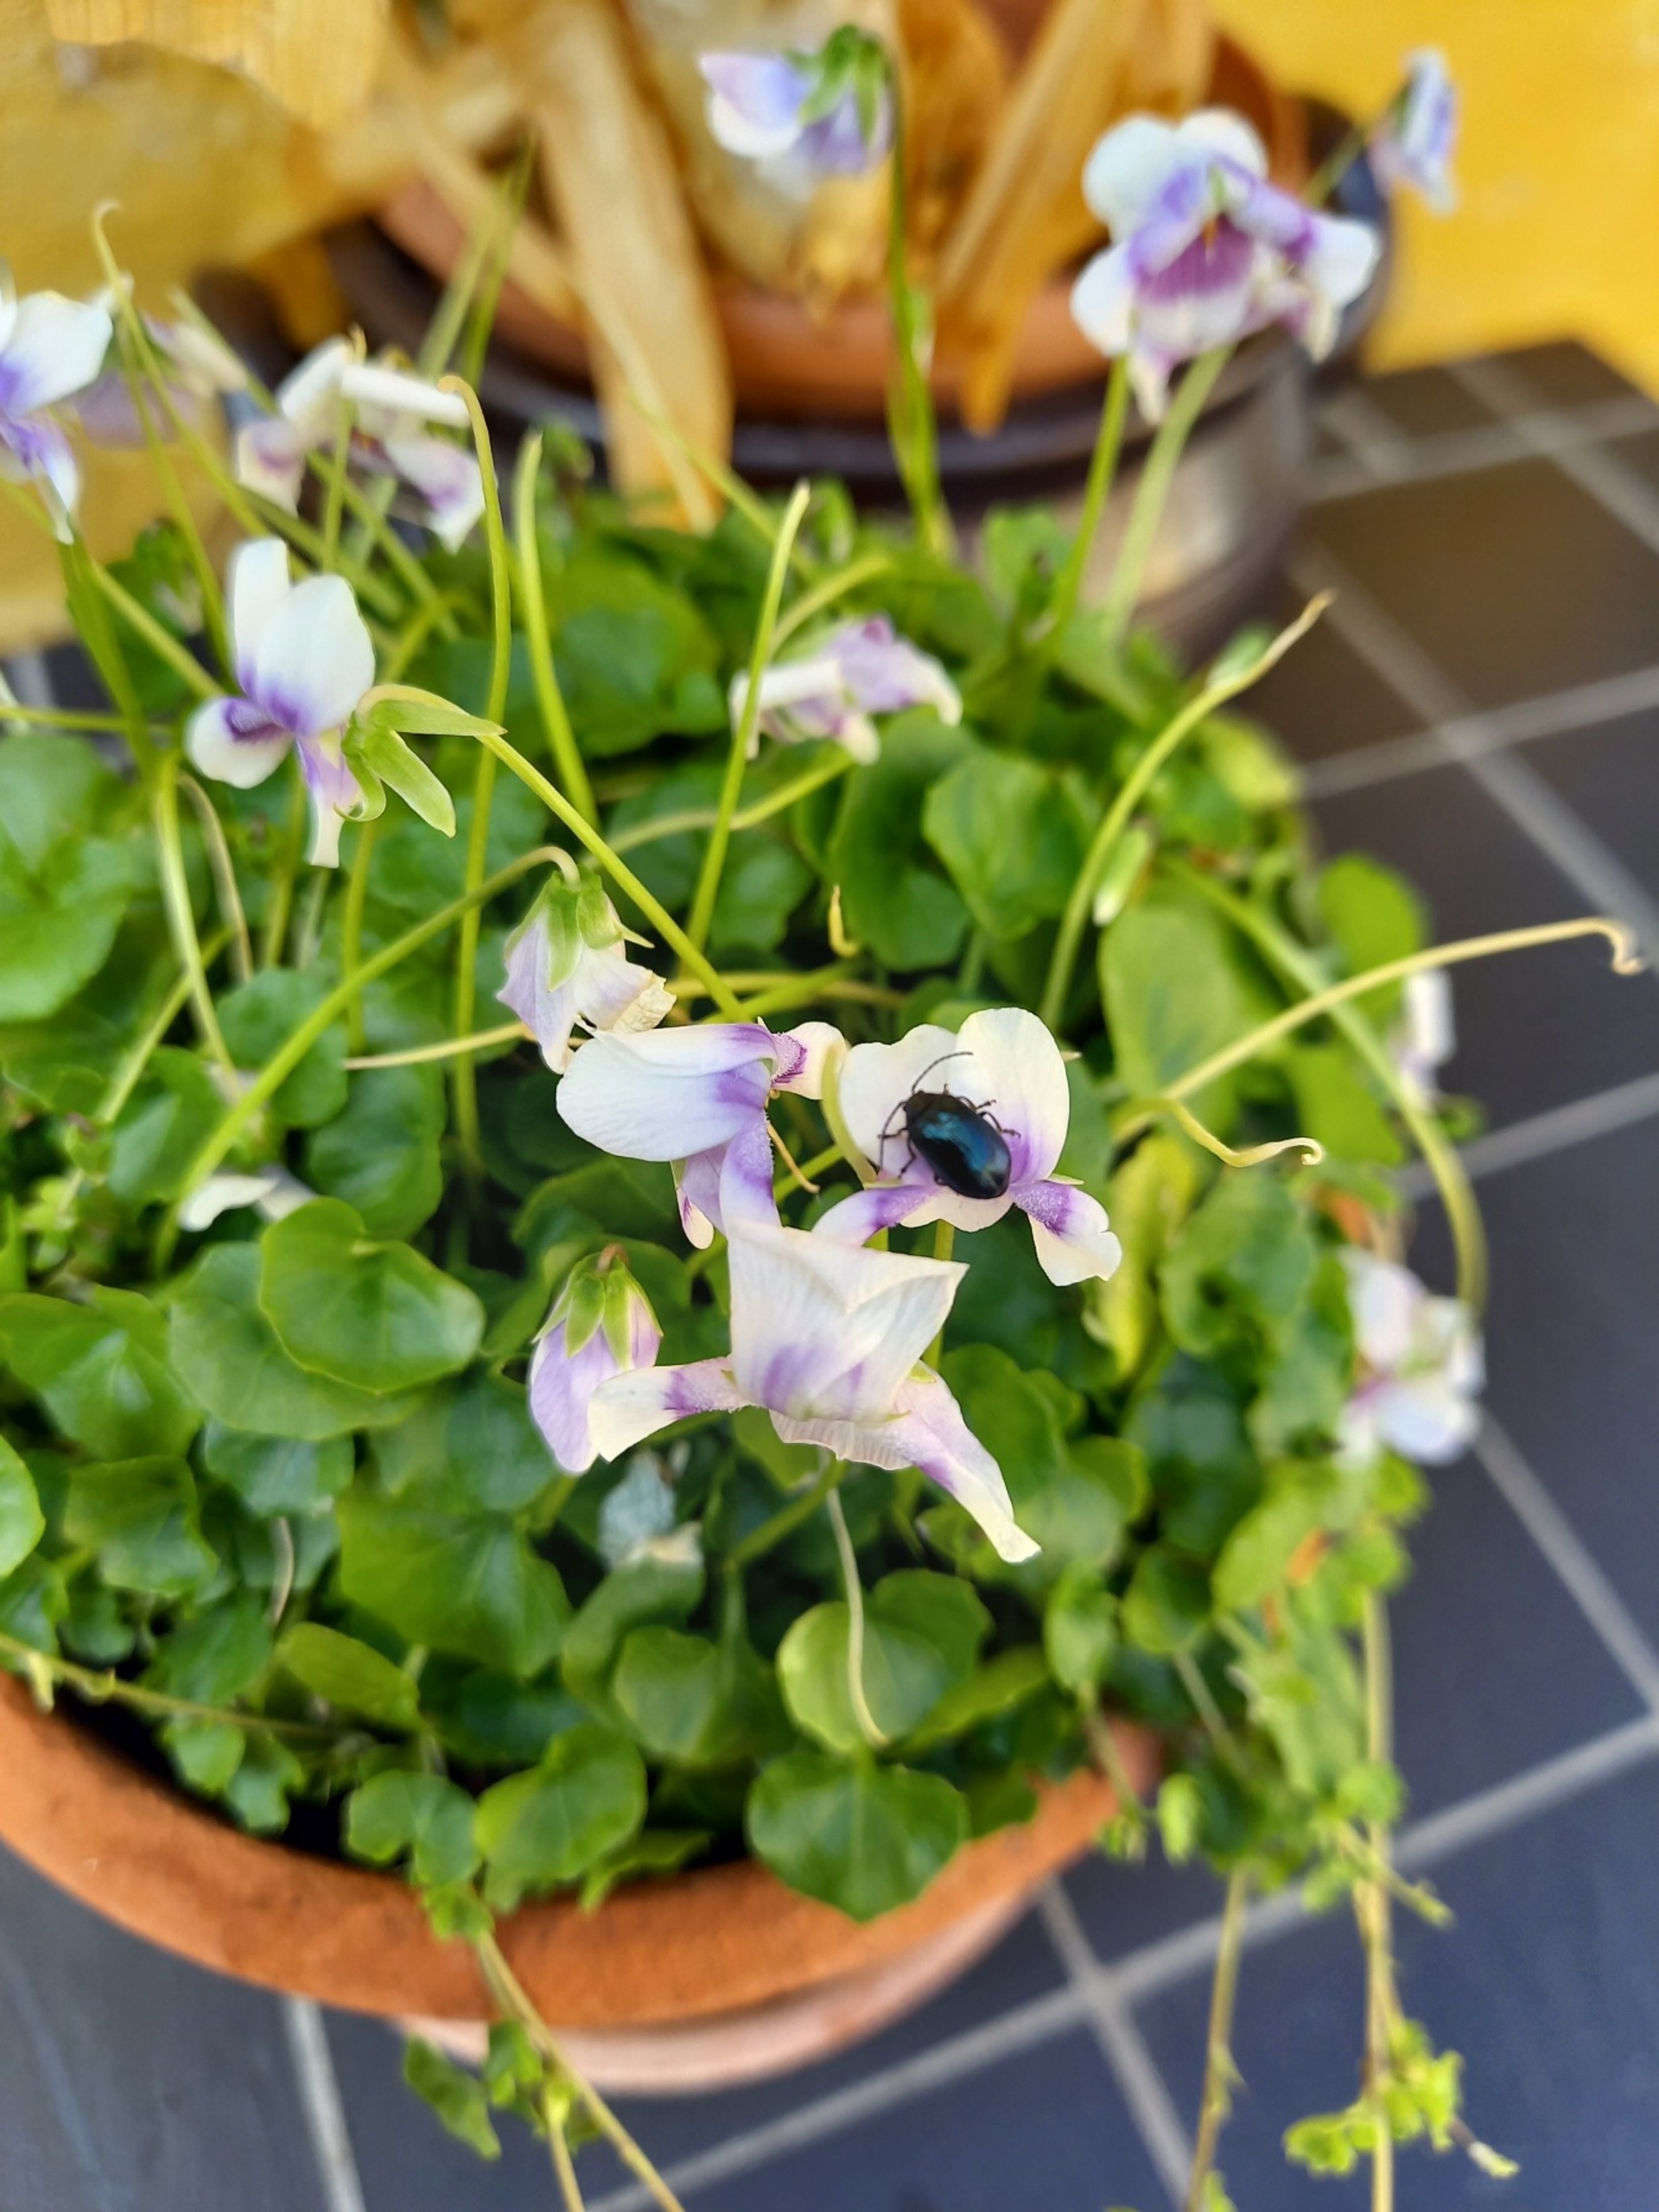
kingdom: Animalia
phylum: Arthropoda
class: Insecta
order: Coleoptera
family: Chrysomelidae
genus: Agelastica
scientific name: Agelastica alni
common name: Ellebladbille
